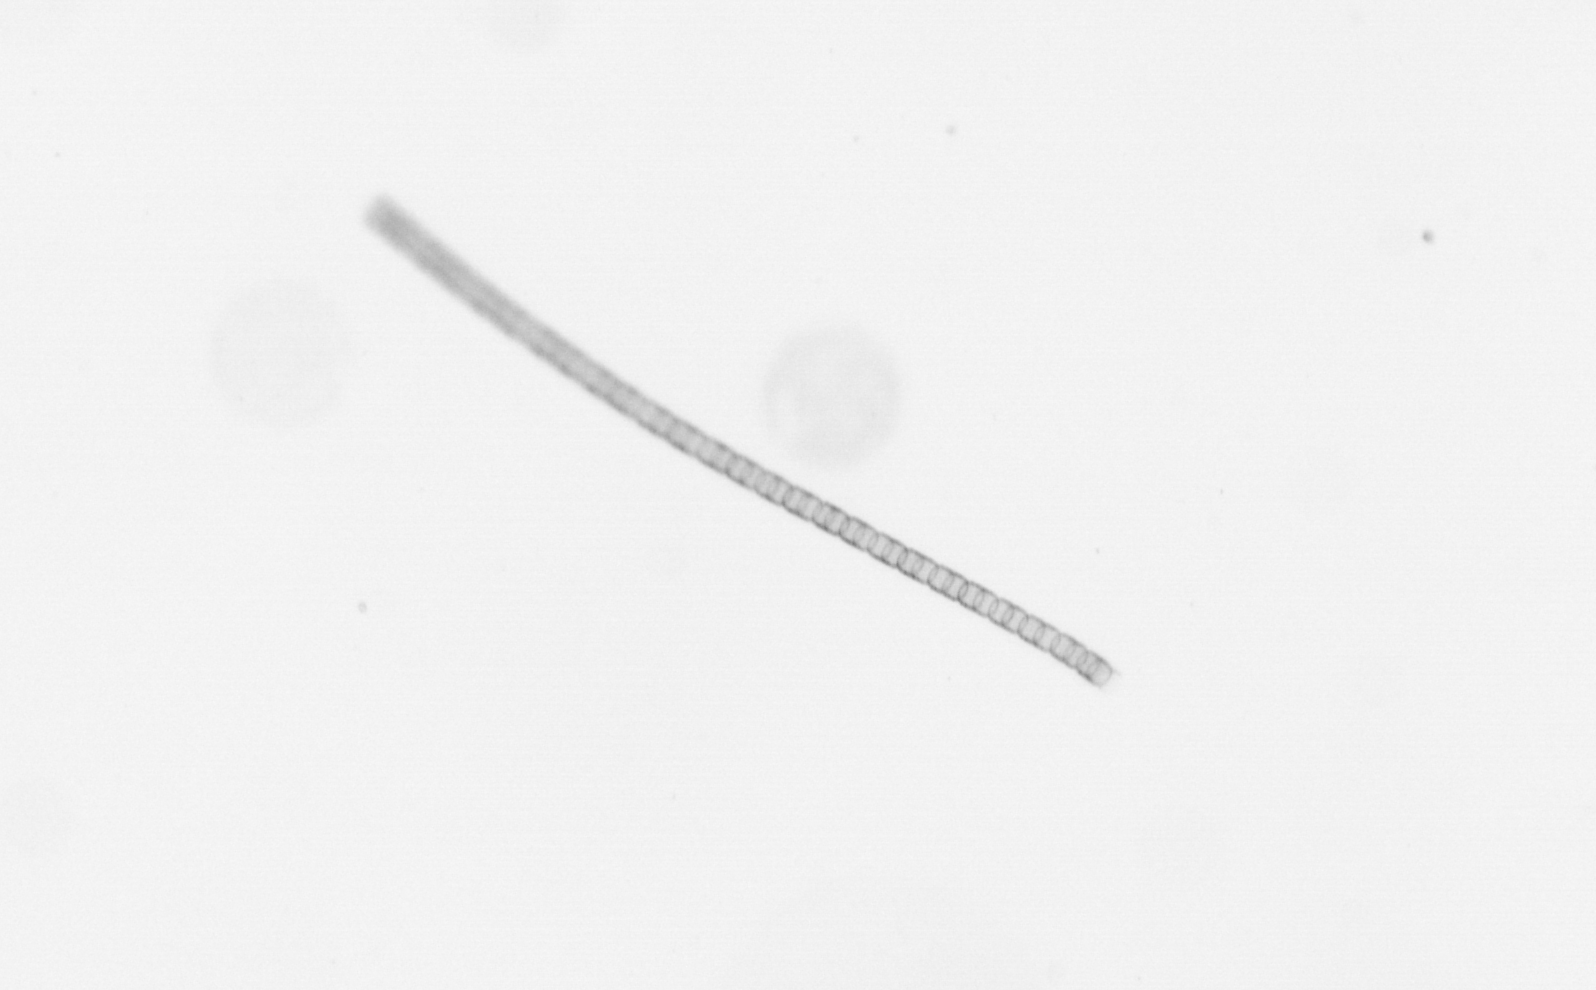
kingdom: Chromista
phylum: Ochrophyta
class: Bacillariophyceae
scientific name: Bacillariophyceae
